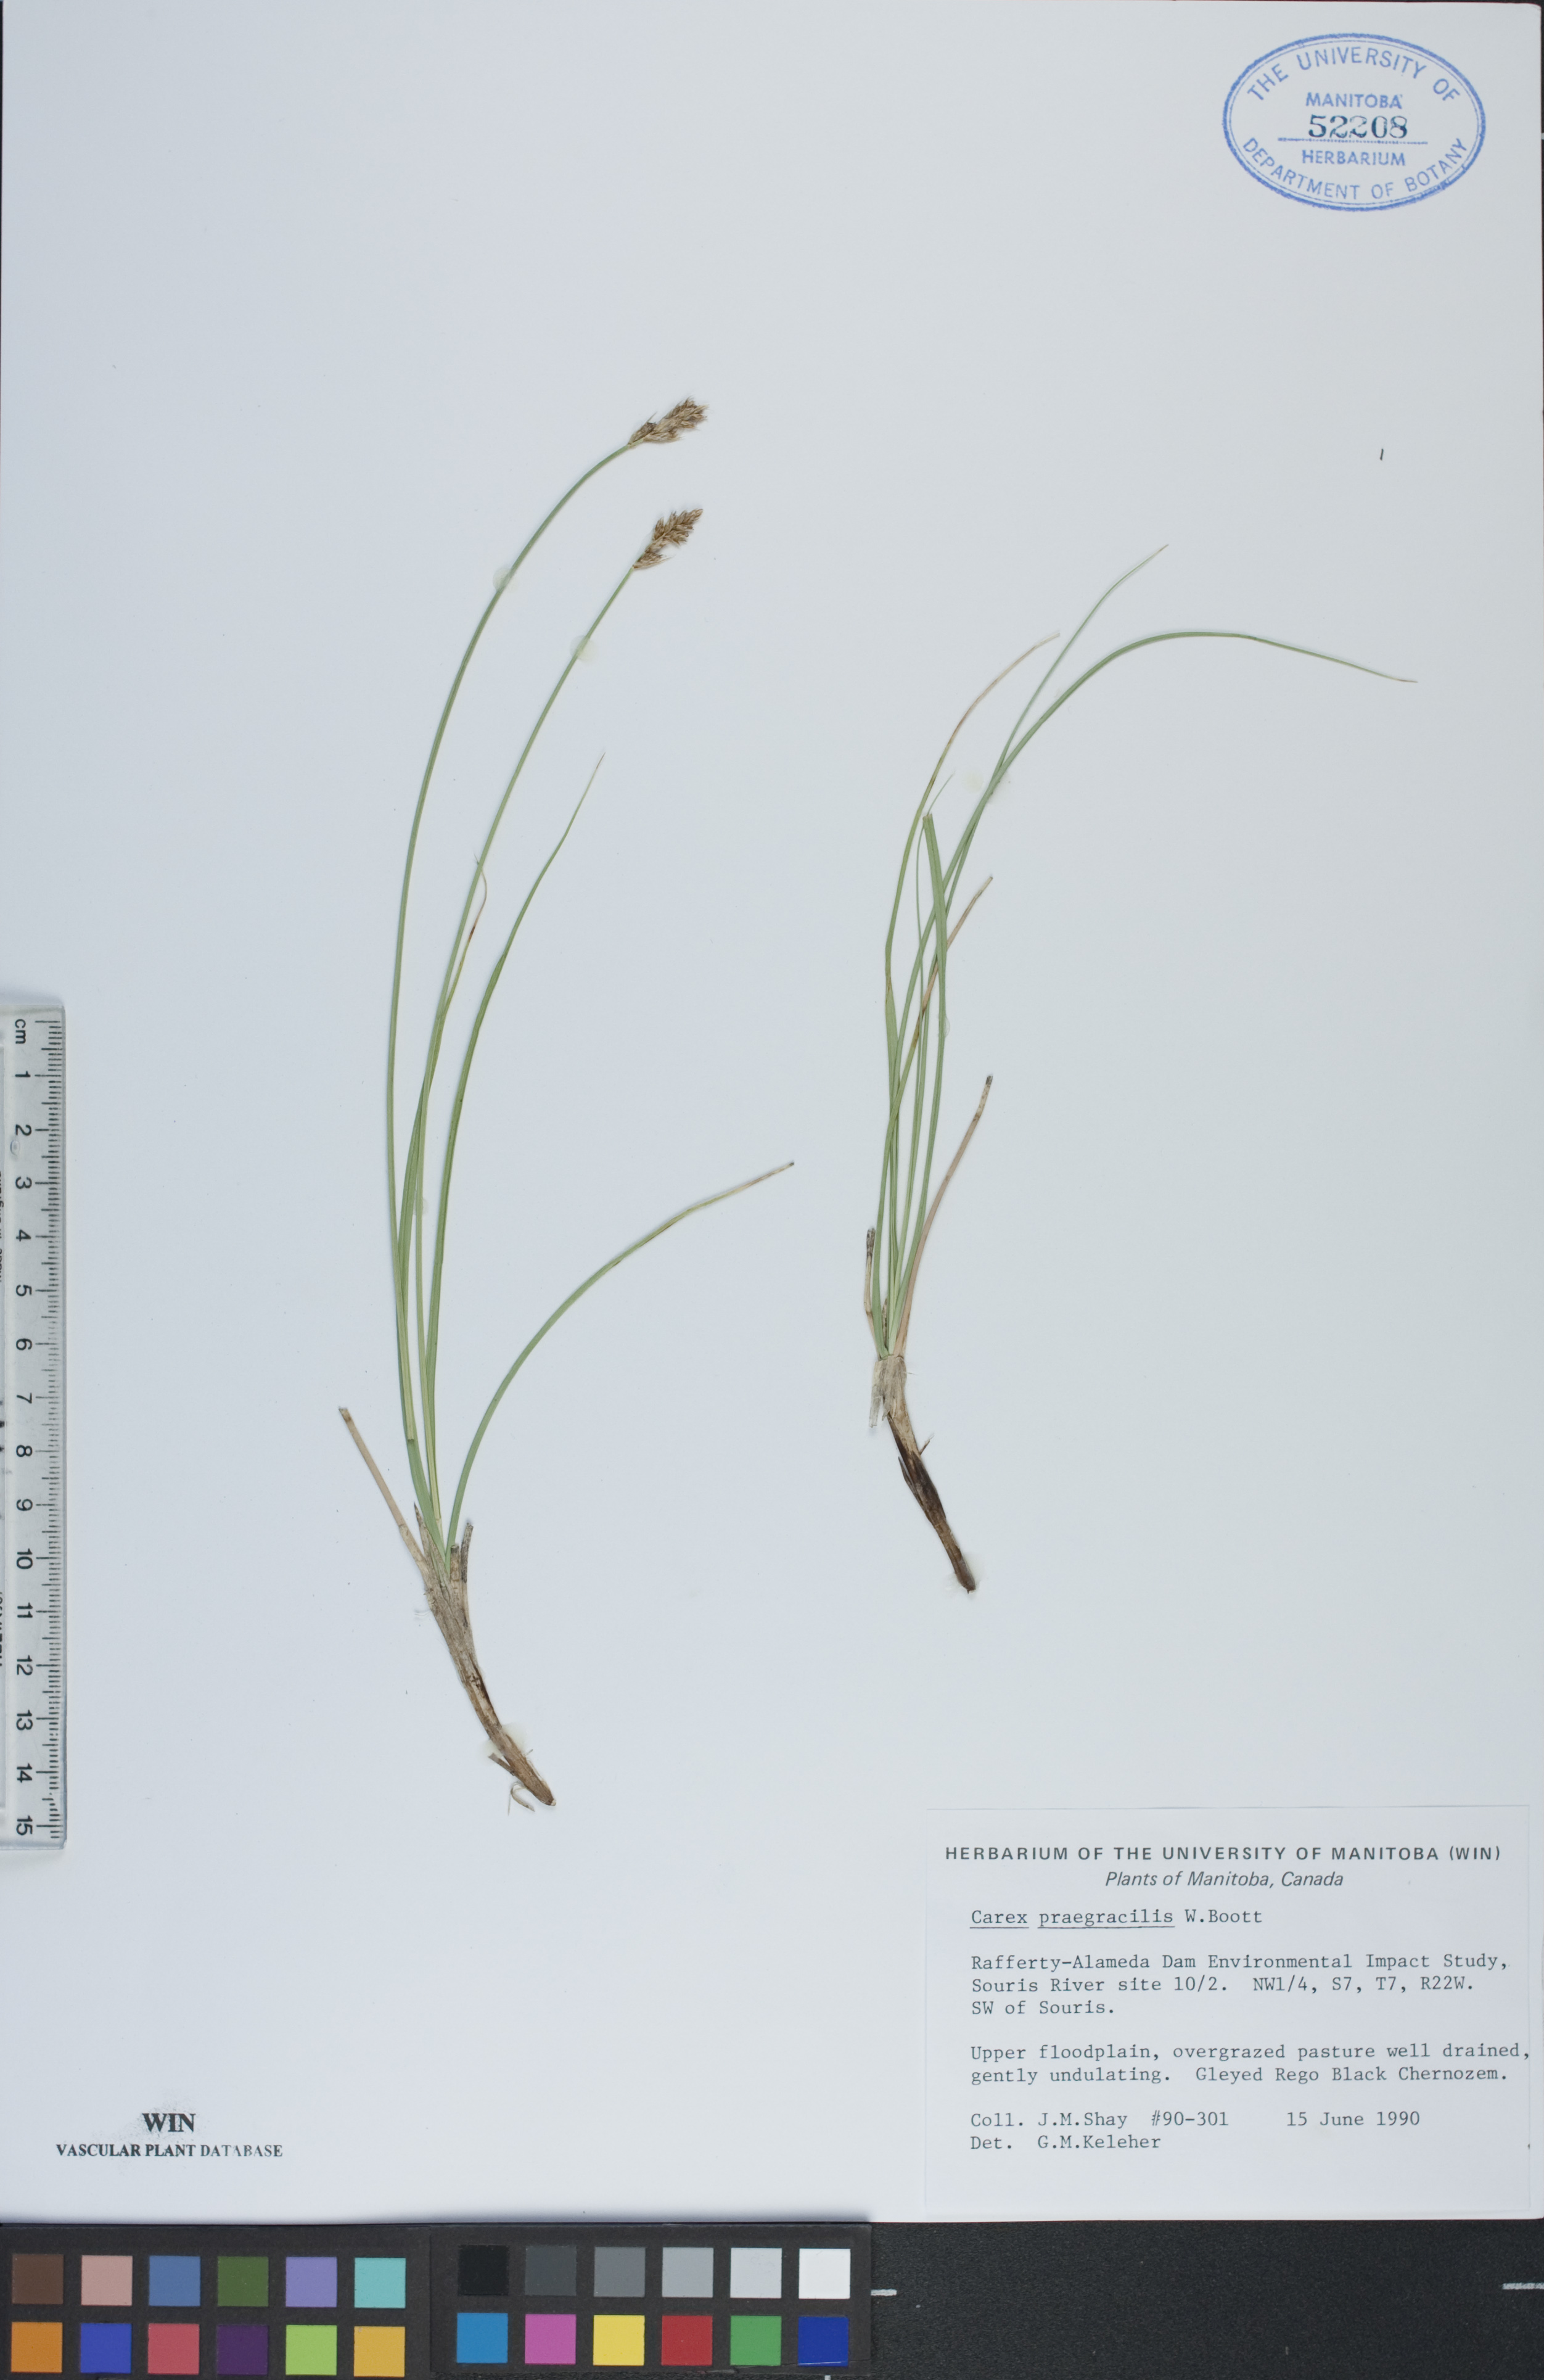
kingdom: Plantae
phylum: Tracheophyta
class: Liliopsida
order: Poales
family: Cyperaceae
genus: Carex
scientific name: Carex praegracilis
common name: Black creeper sedge
